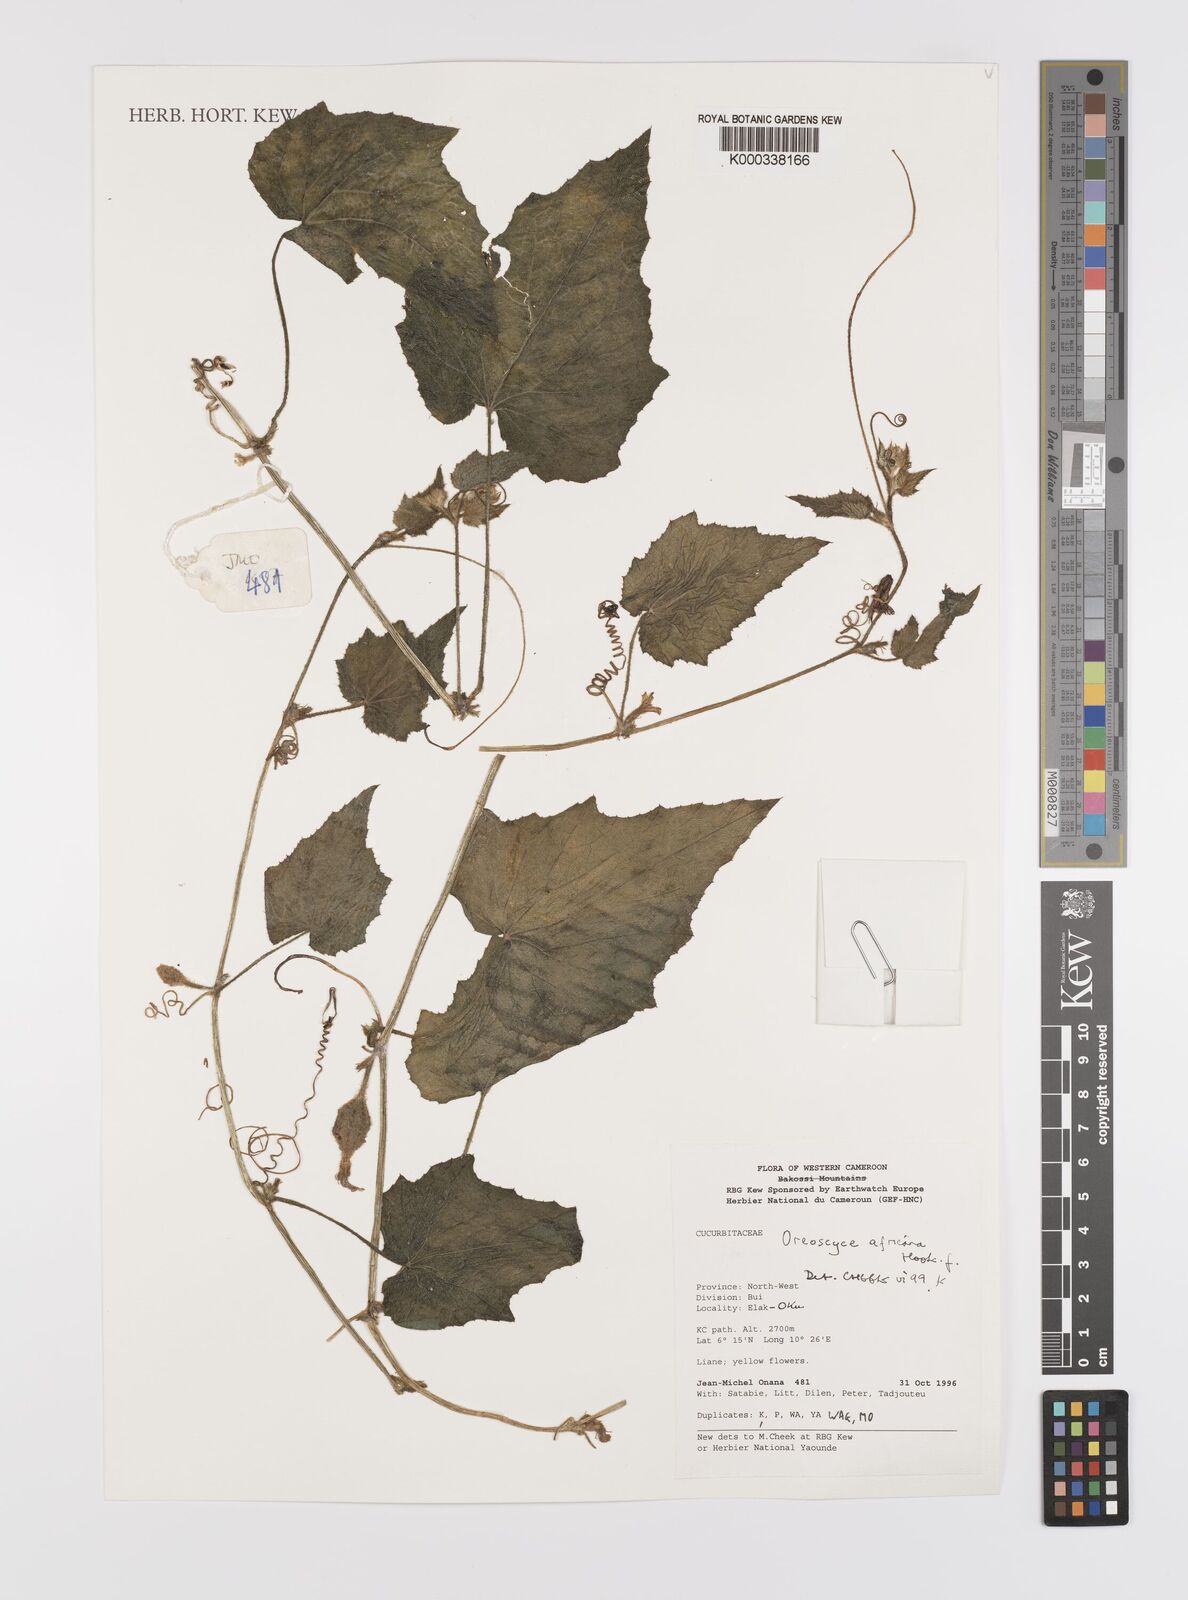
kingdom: Plantae
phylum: Tracheophyta
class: Magnoliopsida
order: Cucurbitales
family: Cucurbitaceae
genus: Cucumis
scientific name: Cucumis oreosyce
